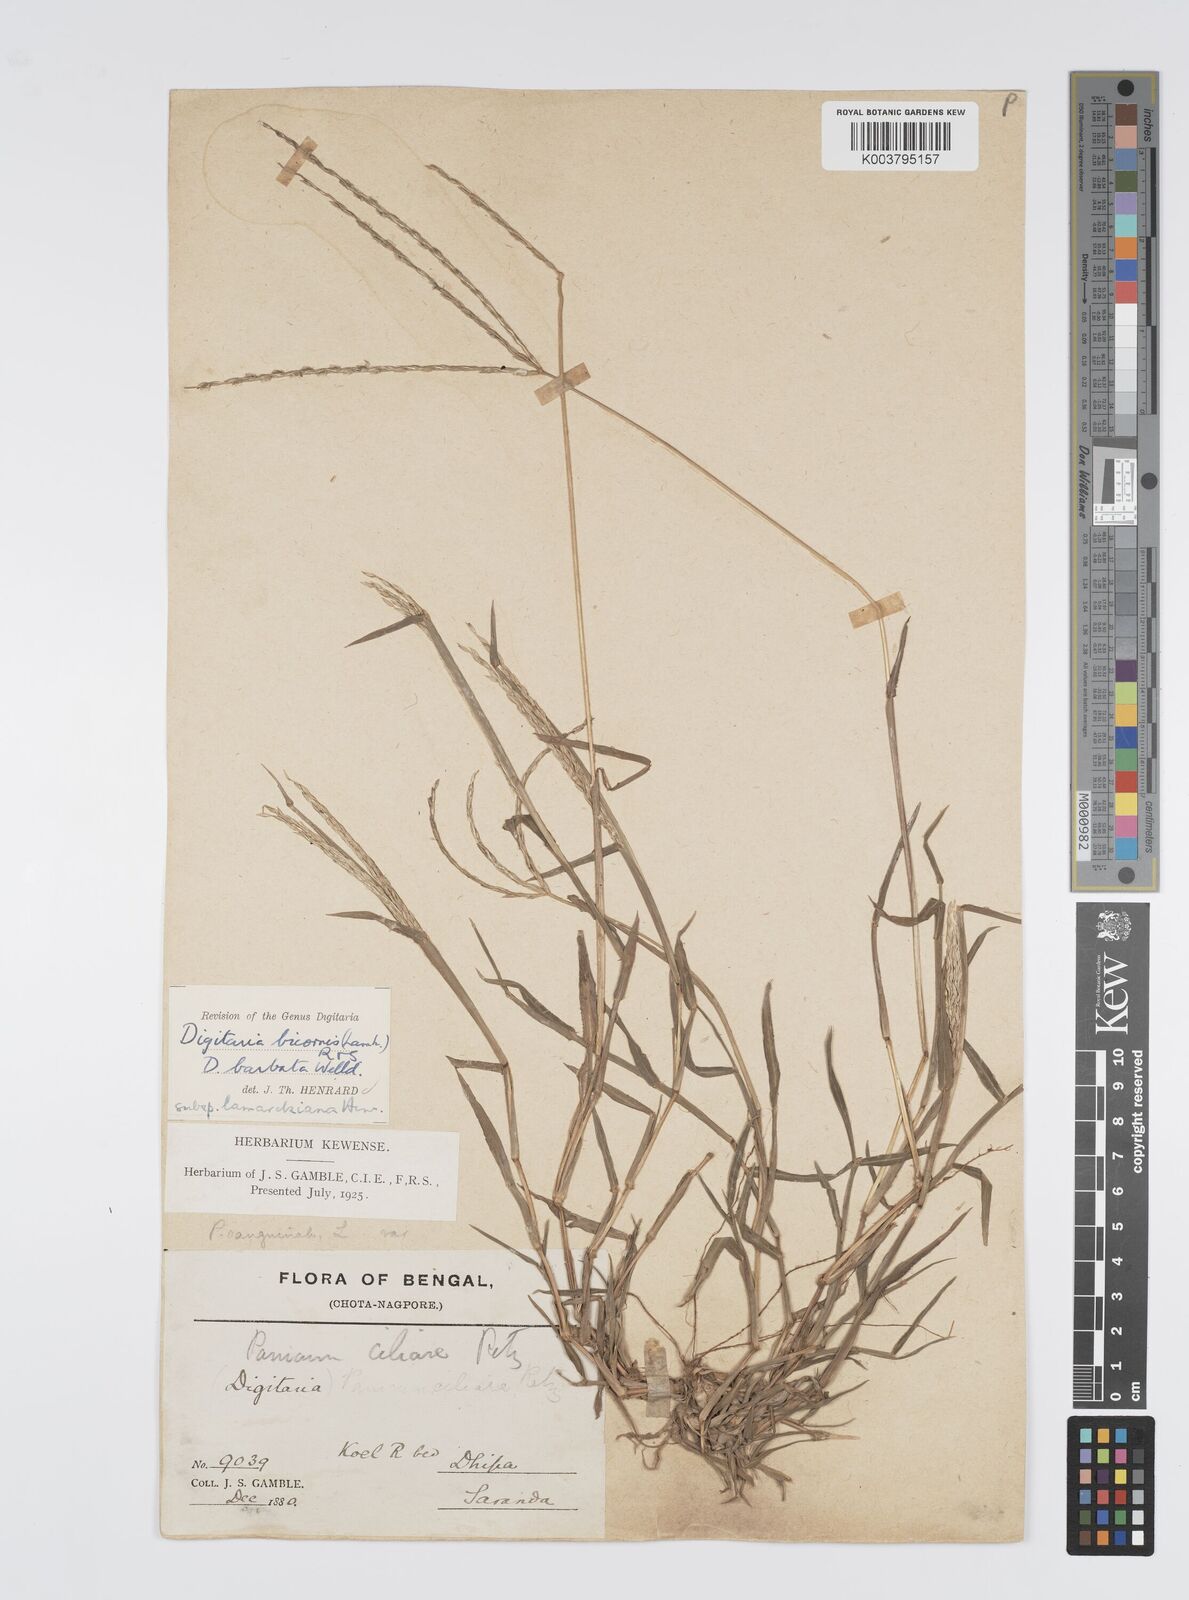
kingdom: Plantae
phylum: Tracheophyta
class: Liliopsida
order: Poales
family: Poaceae
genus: Digitaria
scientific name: Digitaria ciliaris
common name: Tropical finger-grass
